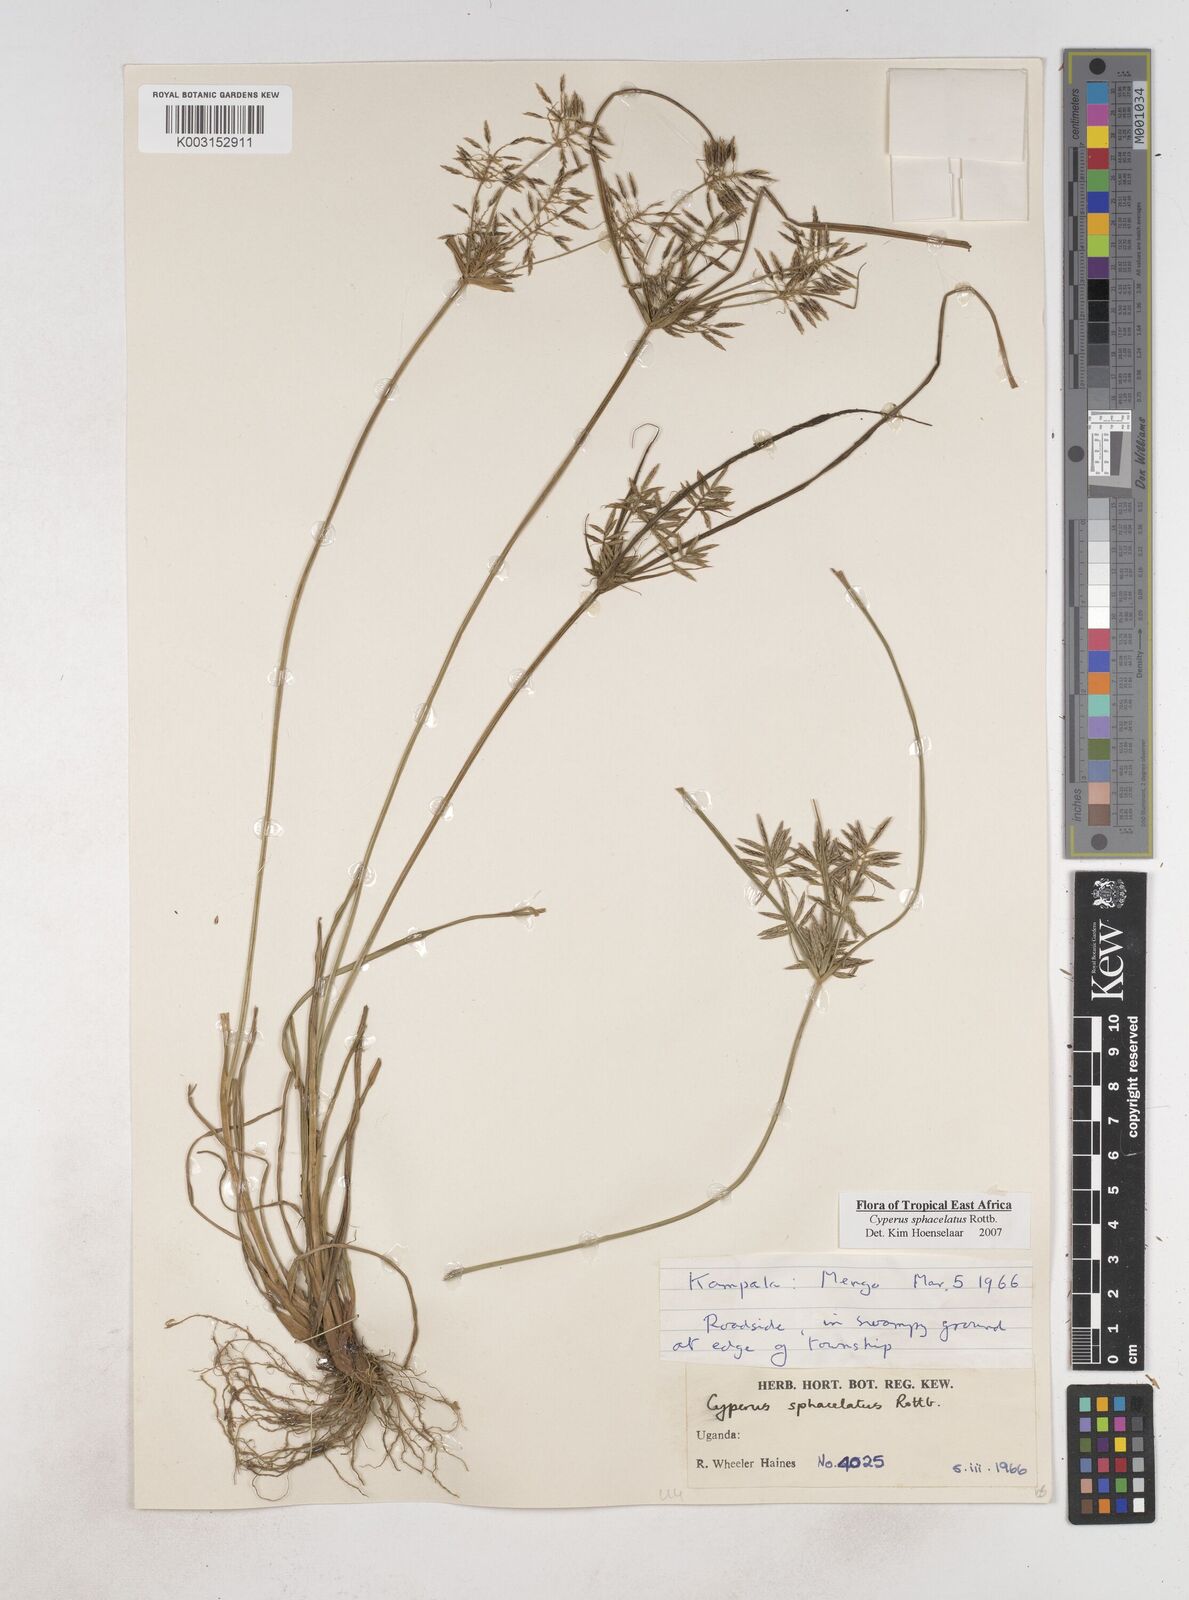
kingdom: Plantae
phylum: Tracheophyta
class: Liliopsida
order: Poales
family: Cyperaceae
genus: Cyperus
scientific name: Cyperus sphacelatus
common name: Roadside flatsedge
